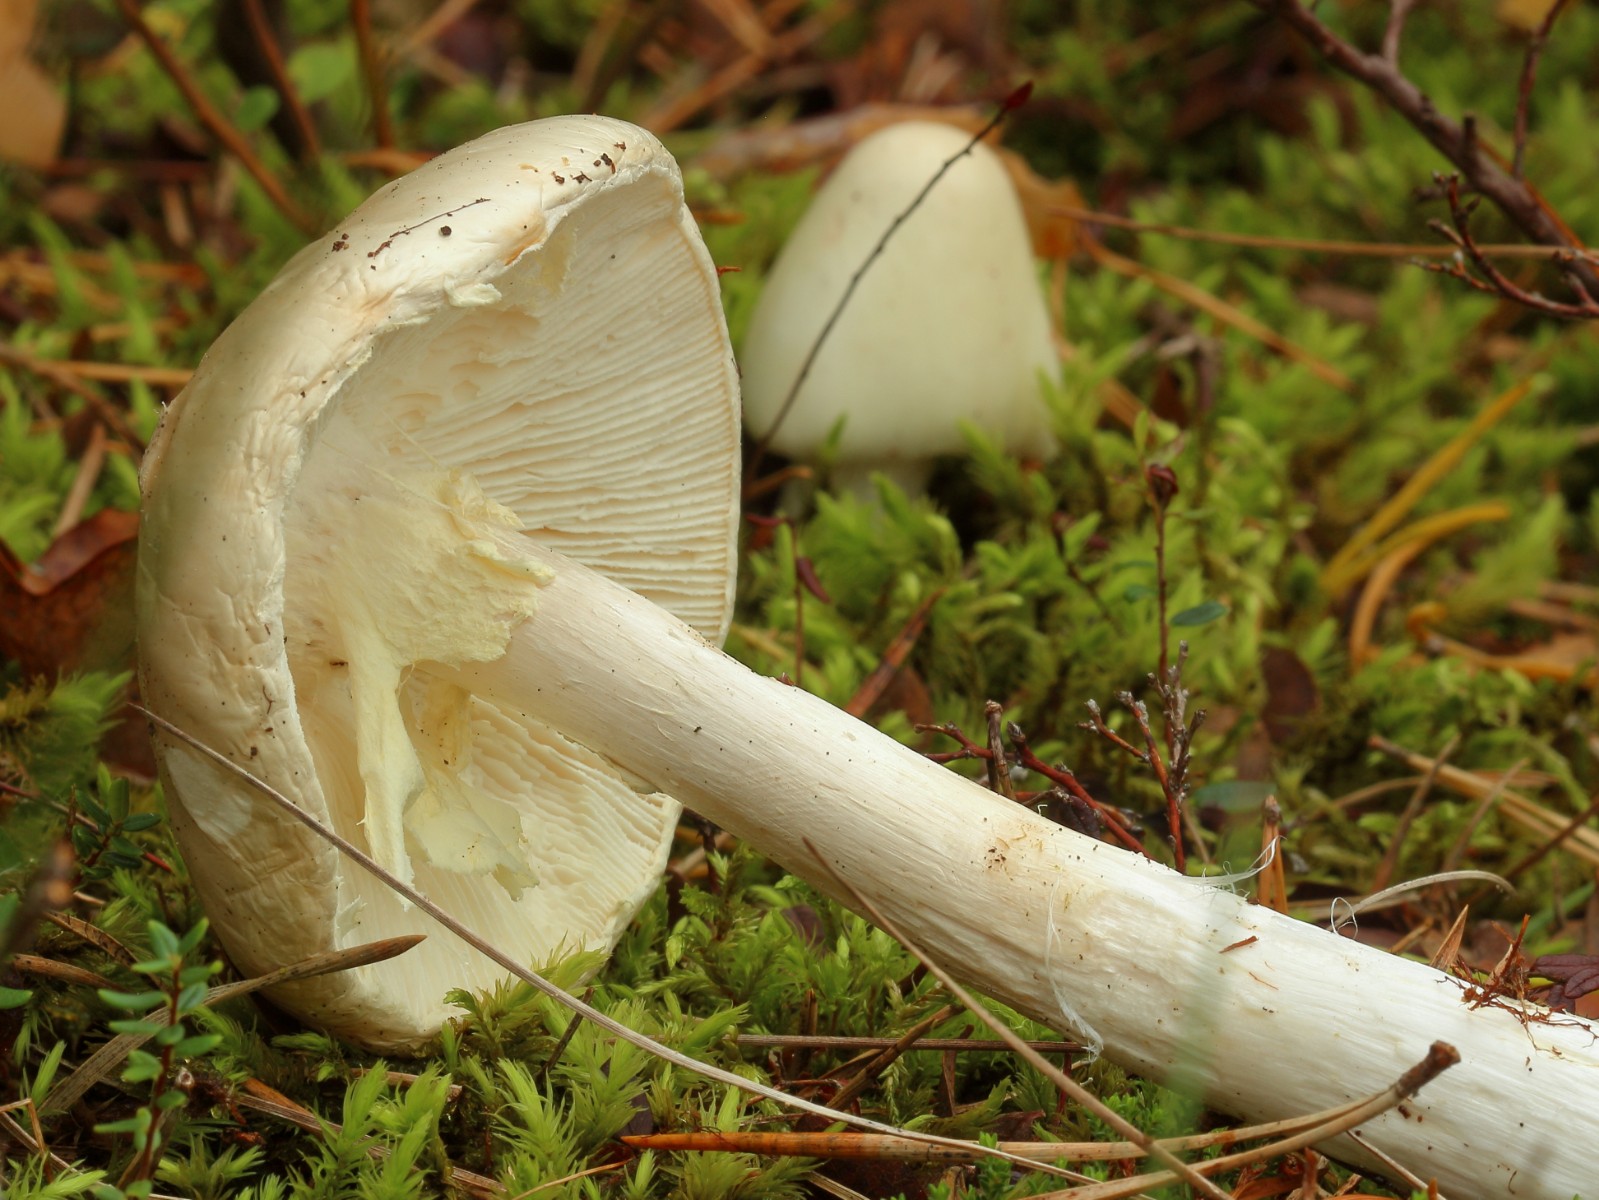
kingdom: Fungi
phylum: Basidiomycota
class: Agaricomycetes
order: Agaricales
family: Amanitaceae
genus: Amanita
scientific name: Amanita virosa
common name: snehvid fluesvamp
